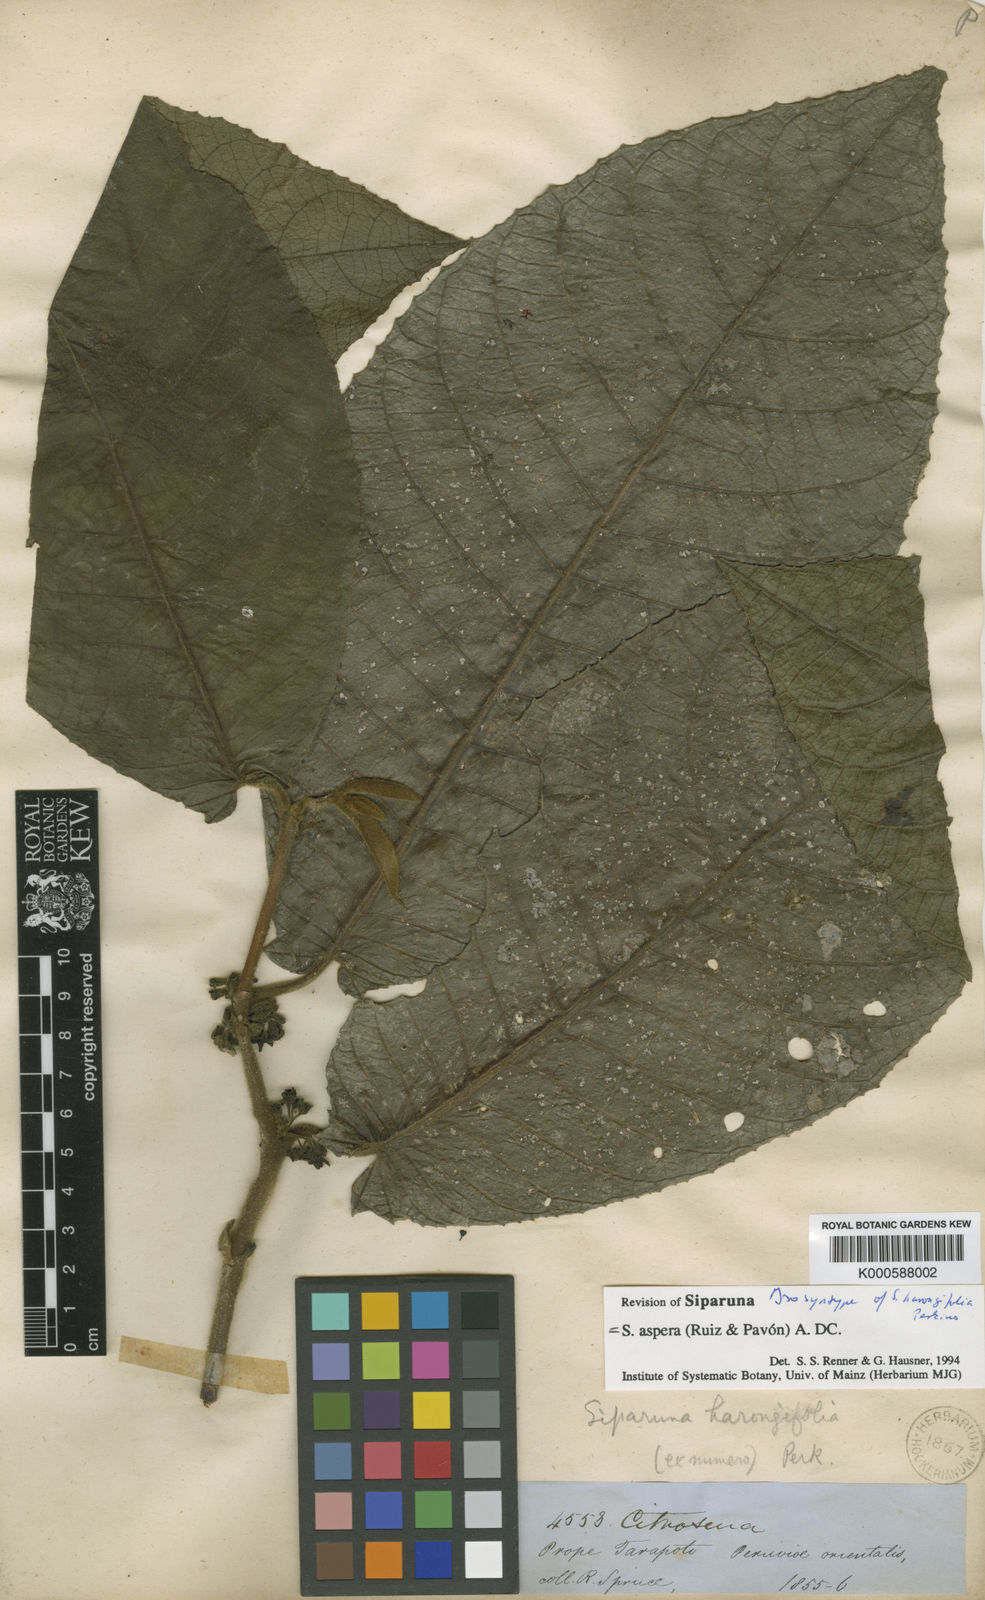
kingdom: Plantae
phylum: Tracheophyta
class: Magnoliopsida
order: Laurales
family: Siparunaceae
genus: Siparuna
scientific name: Siparuna aspera
